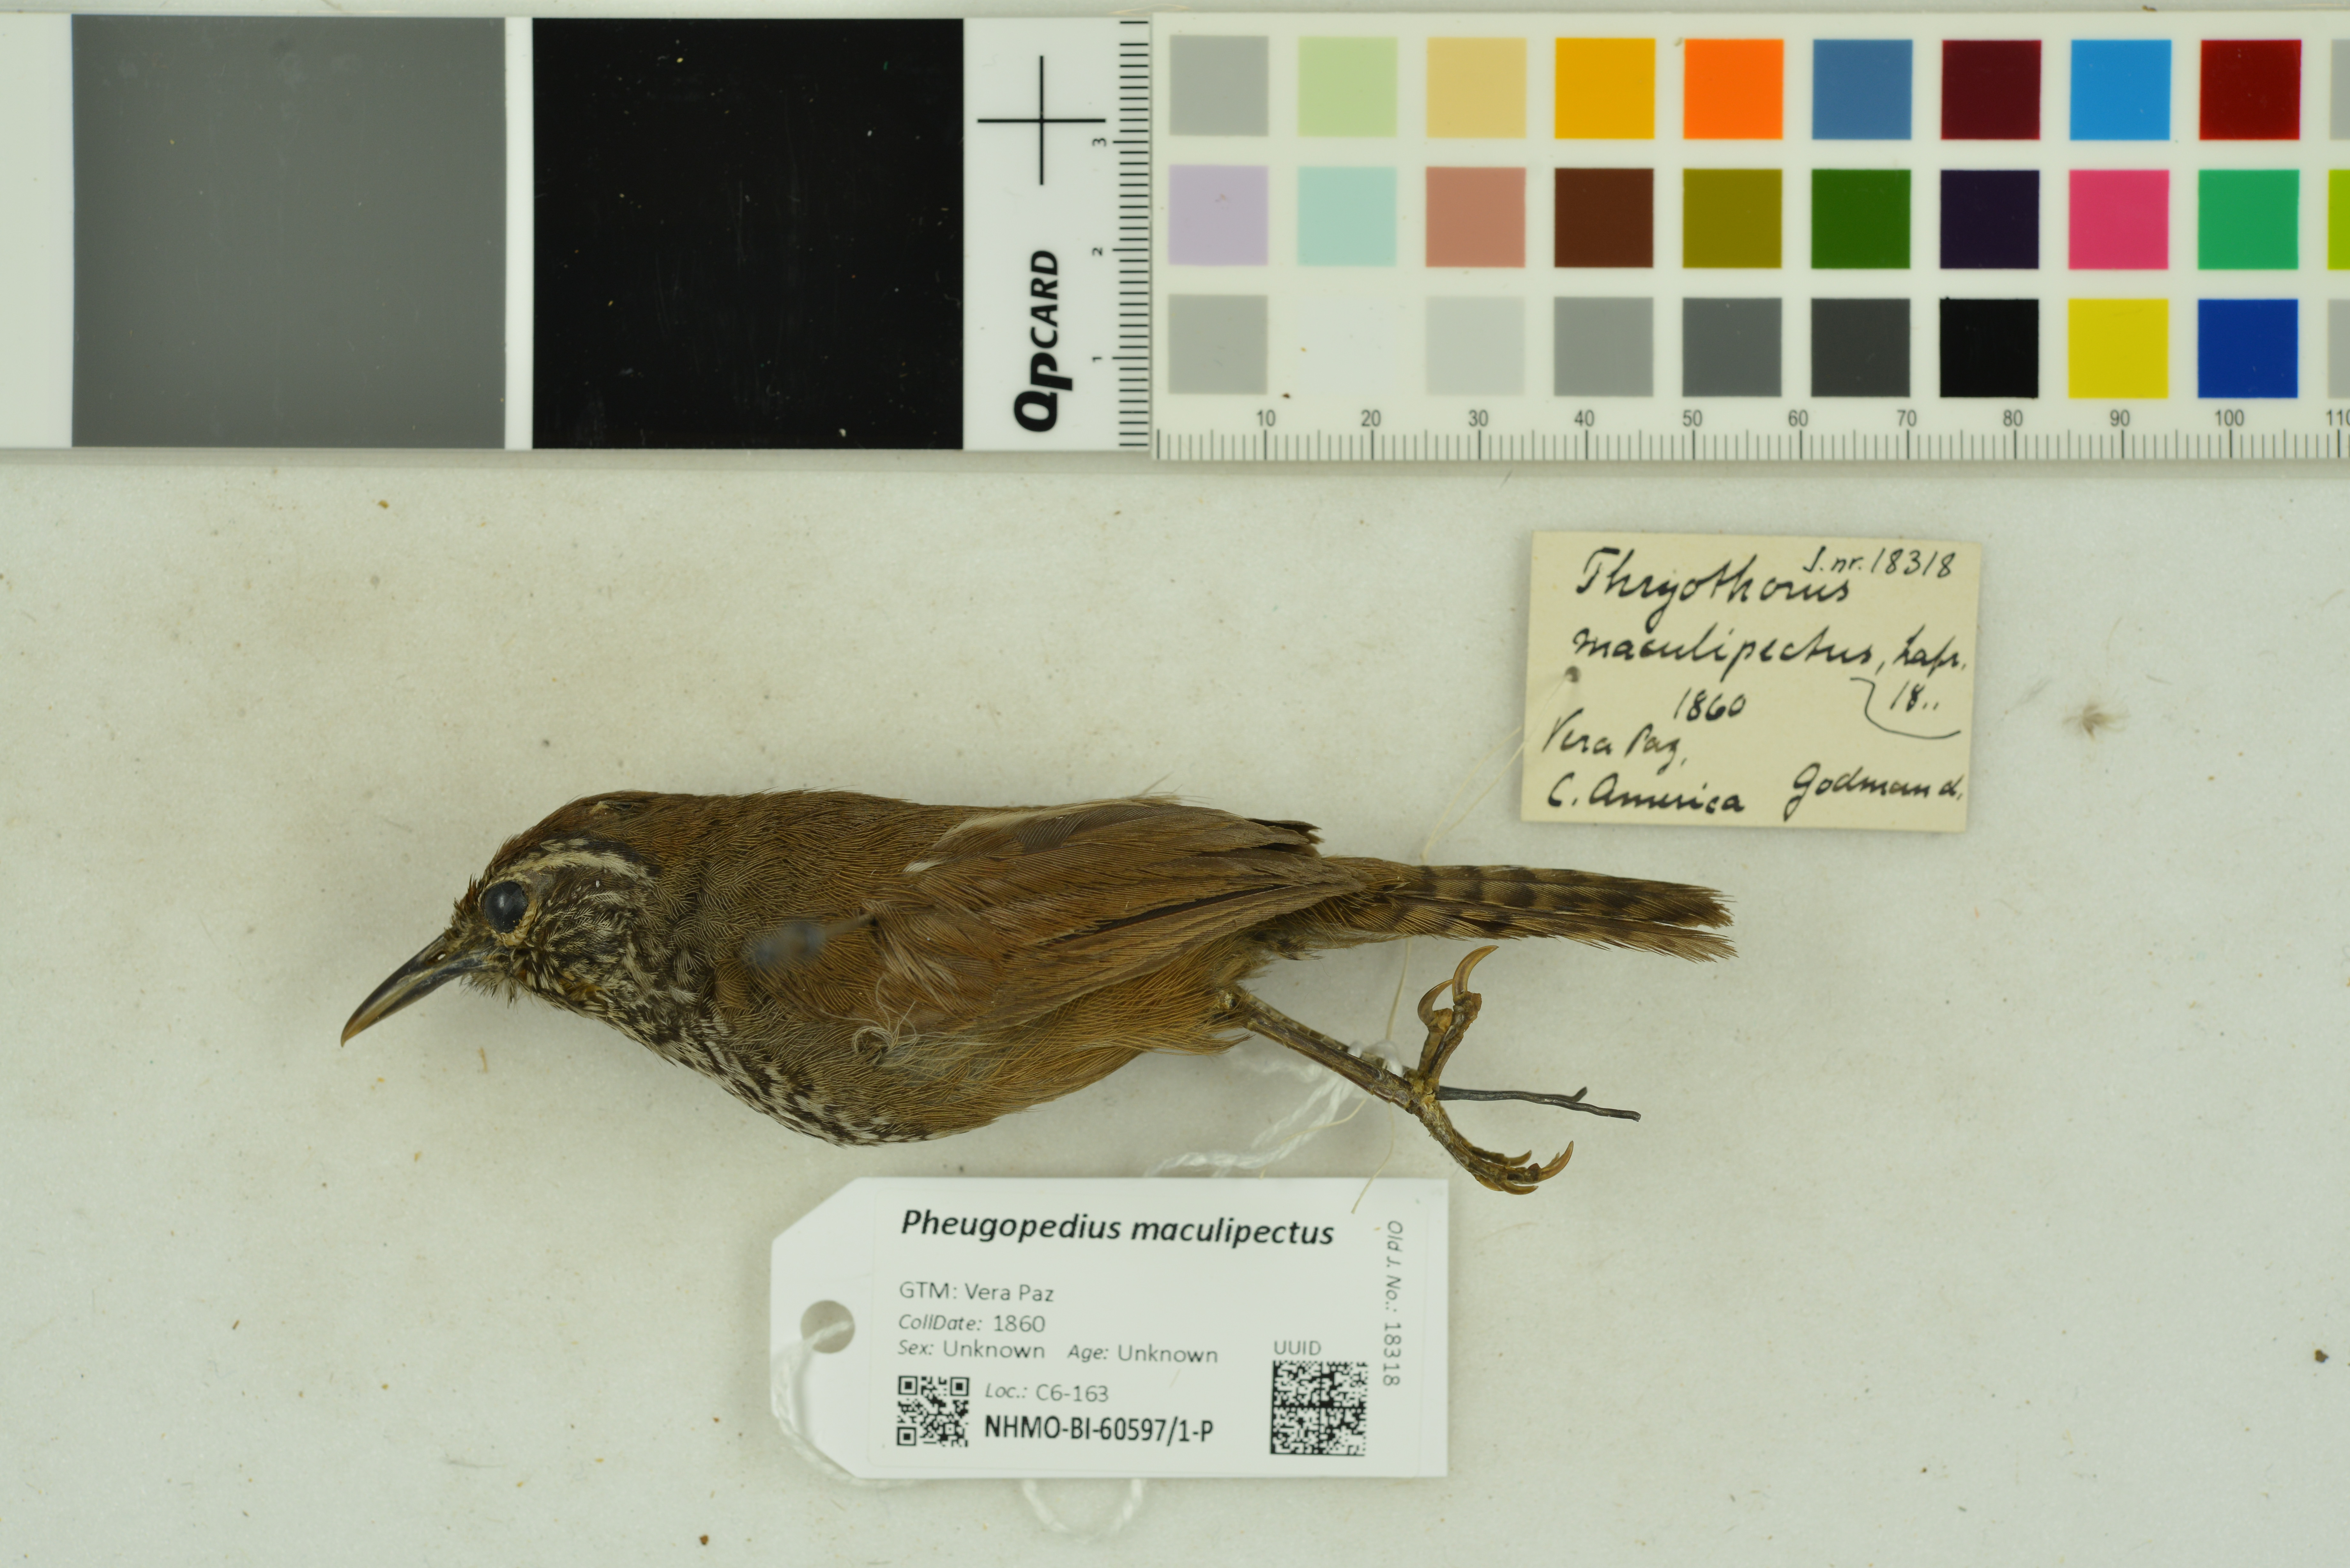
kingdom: Animalia
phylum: Chordata
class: Aves
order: Passeriformes
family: Troglodytidae
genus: Pheugopedius
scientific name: Pheugopedius maculipectus
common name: Spot-breasted wren
